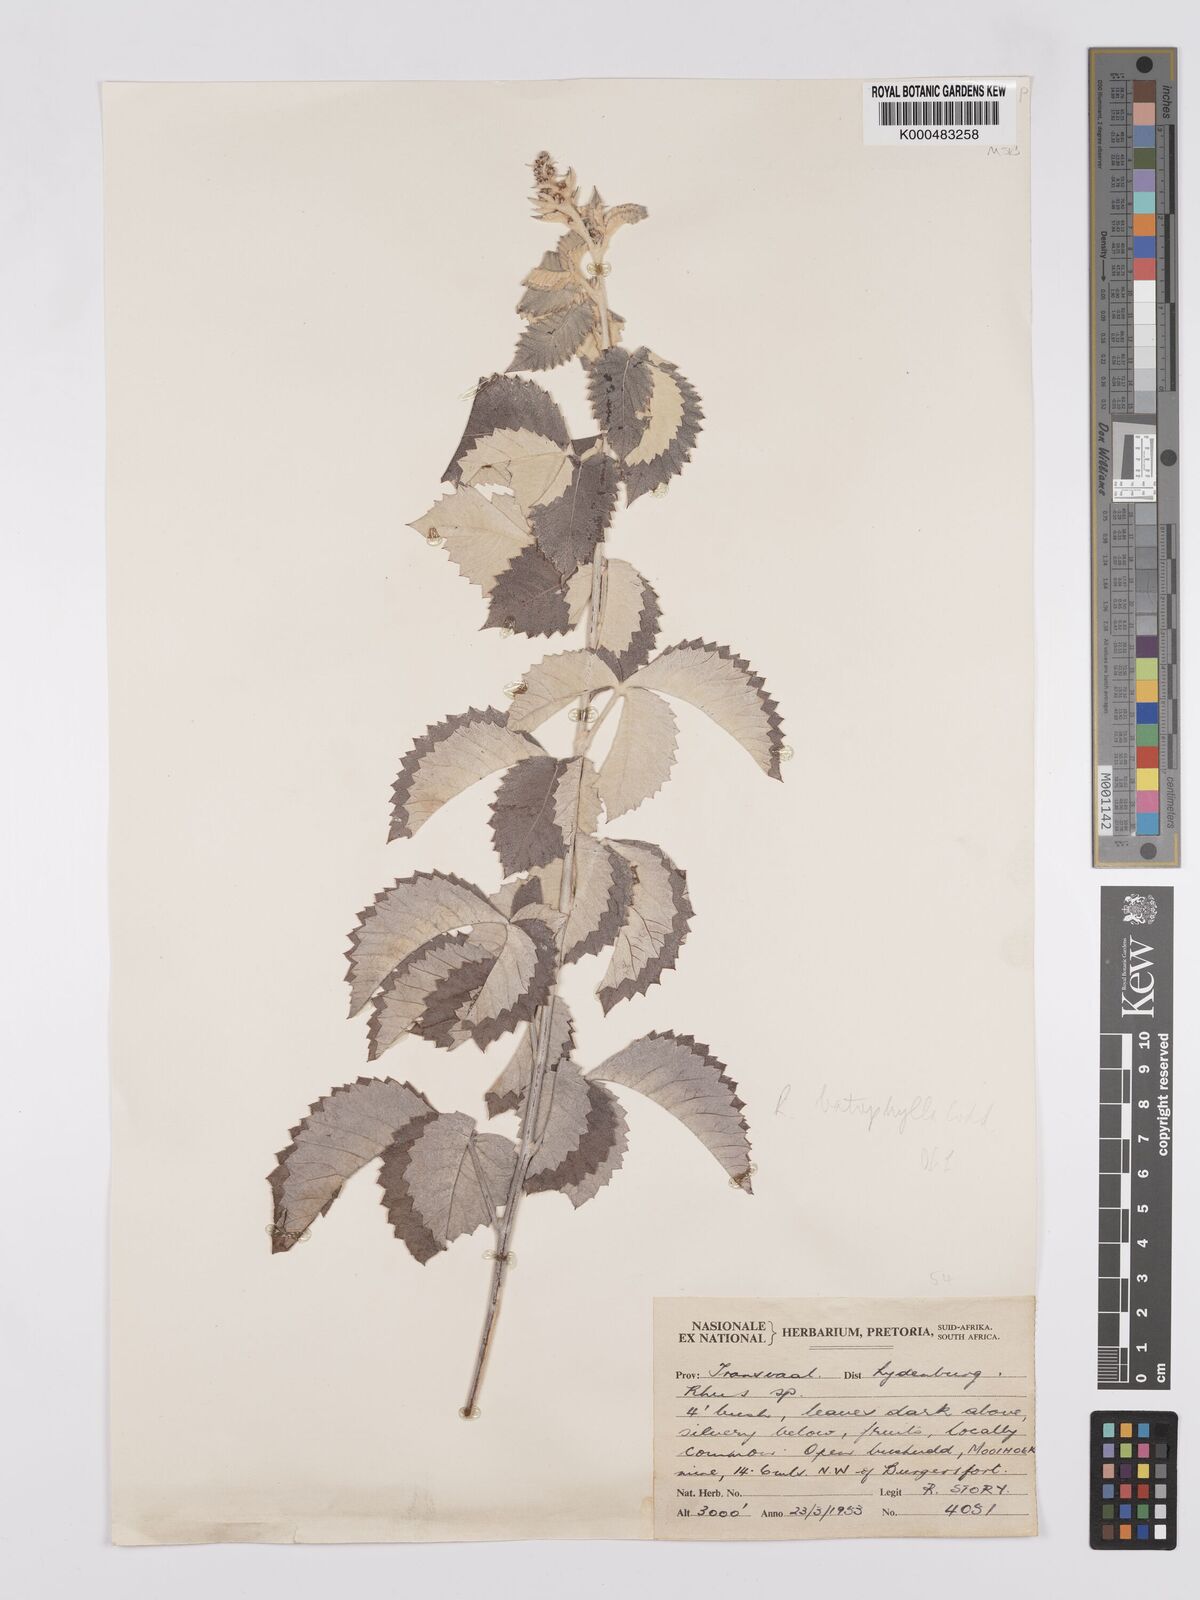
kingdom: Plantae
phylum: Tracheophyta
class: Magnoliopsida
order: Sapindales
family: Anacardiaceae
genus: Searsia
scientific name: Searsia batophylla
